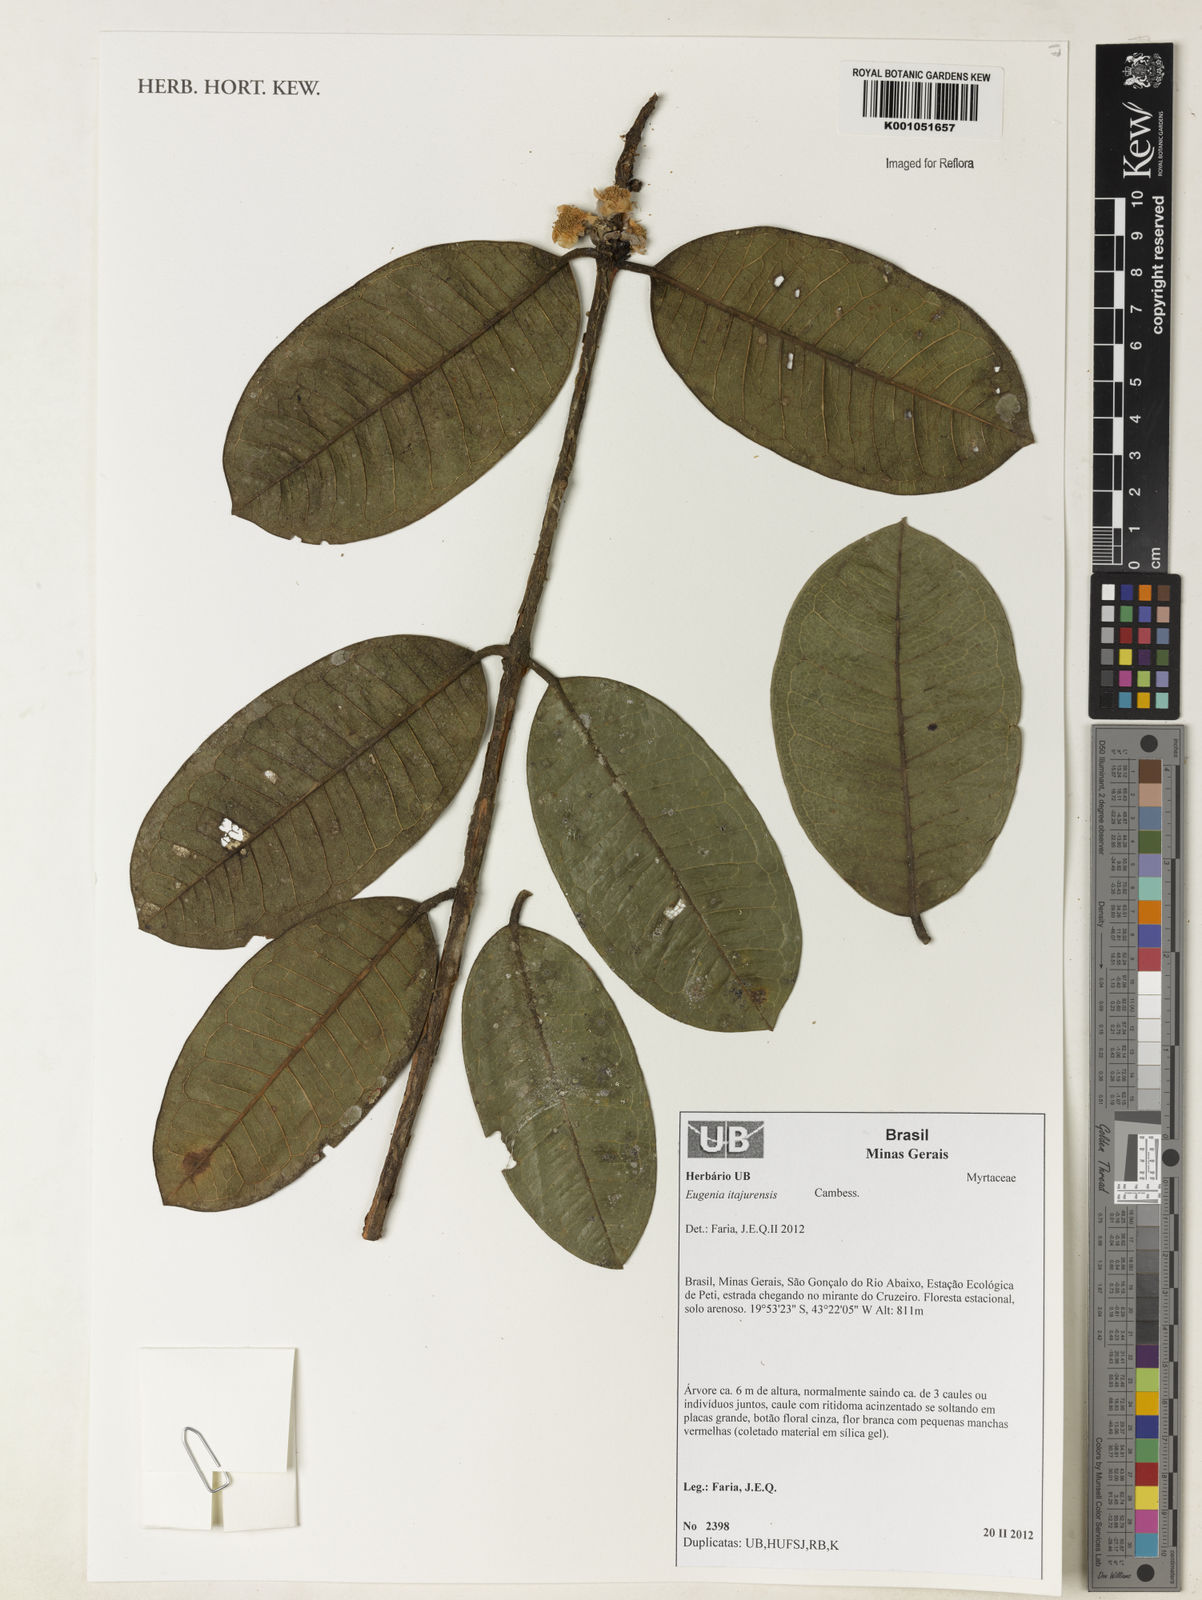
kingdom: Plantae
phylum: Tracheophyta
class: Magnoliopsida
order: Myrtales
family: Myrtaceae
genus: Eugenia
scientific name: Eugenia itajurensis
